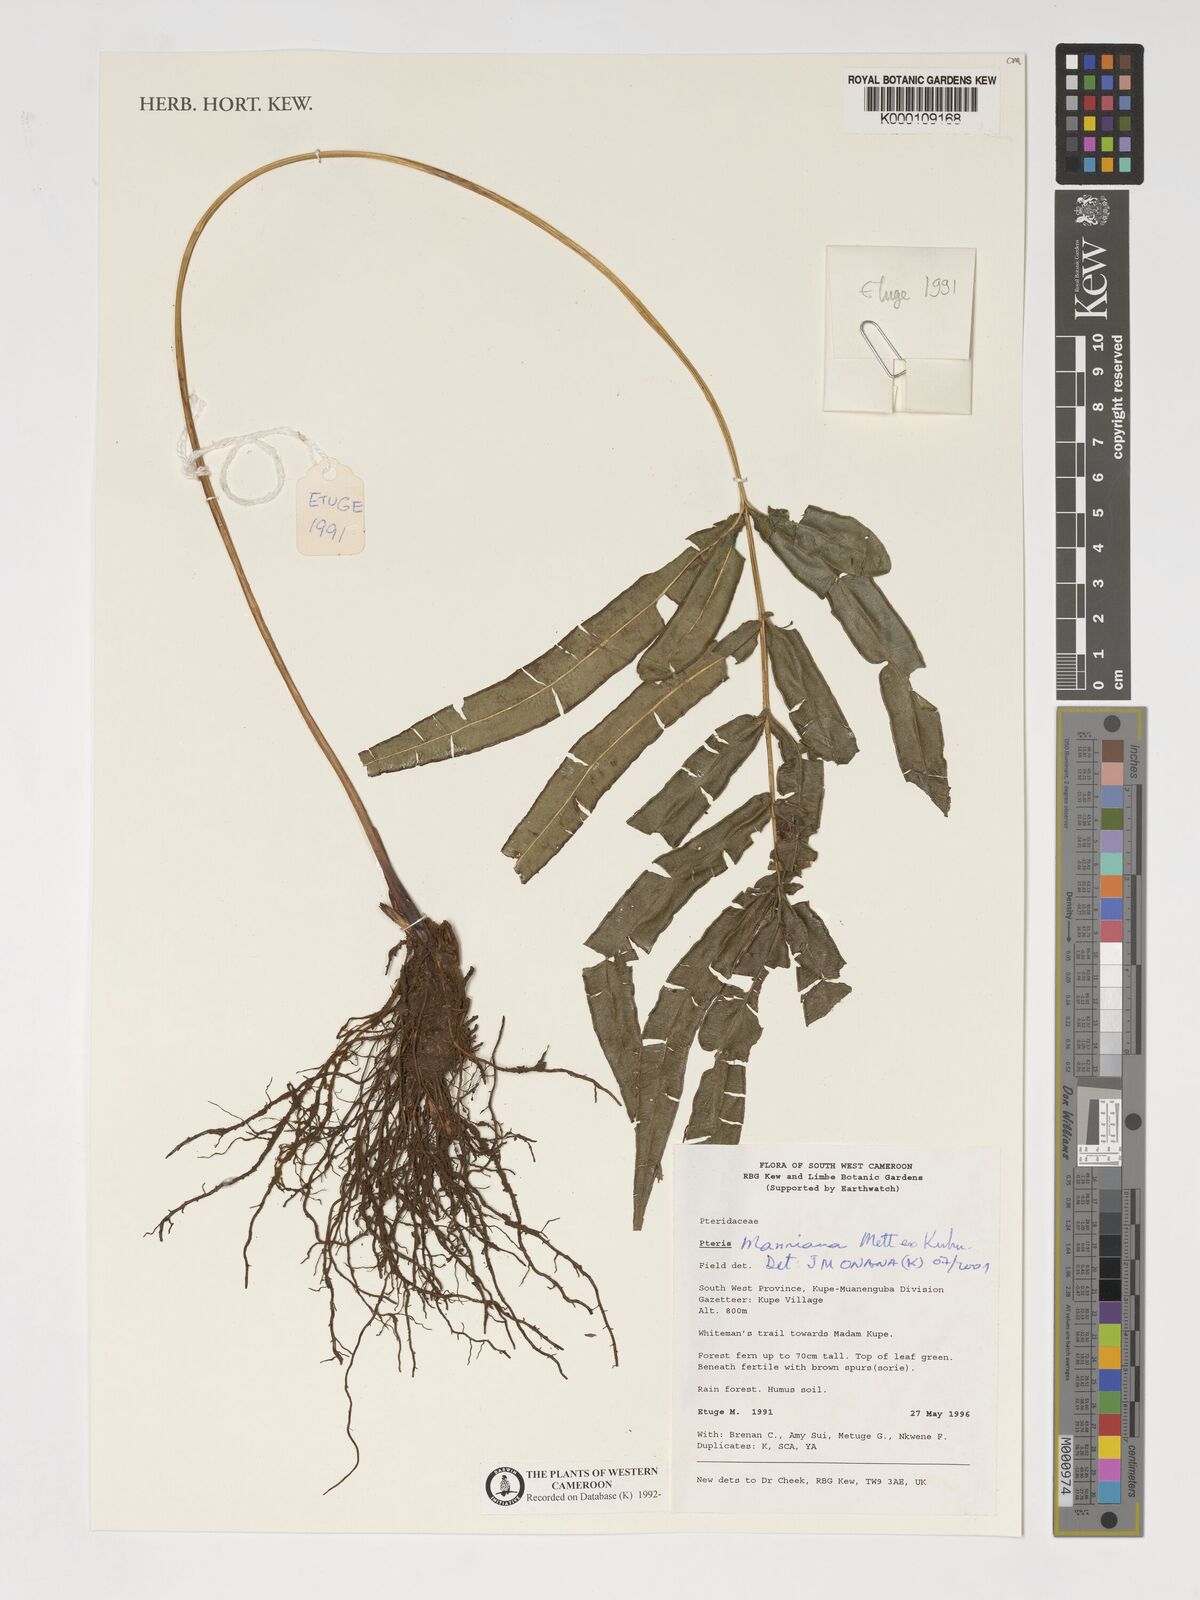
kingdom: Plantae
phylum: Tracheophyta
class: Polypodiopsida
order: Polypodiales
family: Pteridaceae
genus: Pteris
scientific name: Pteris camerooniana
